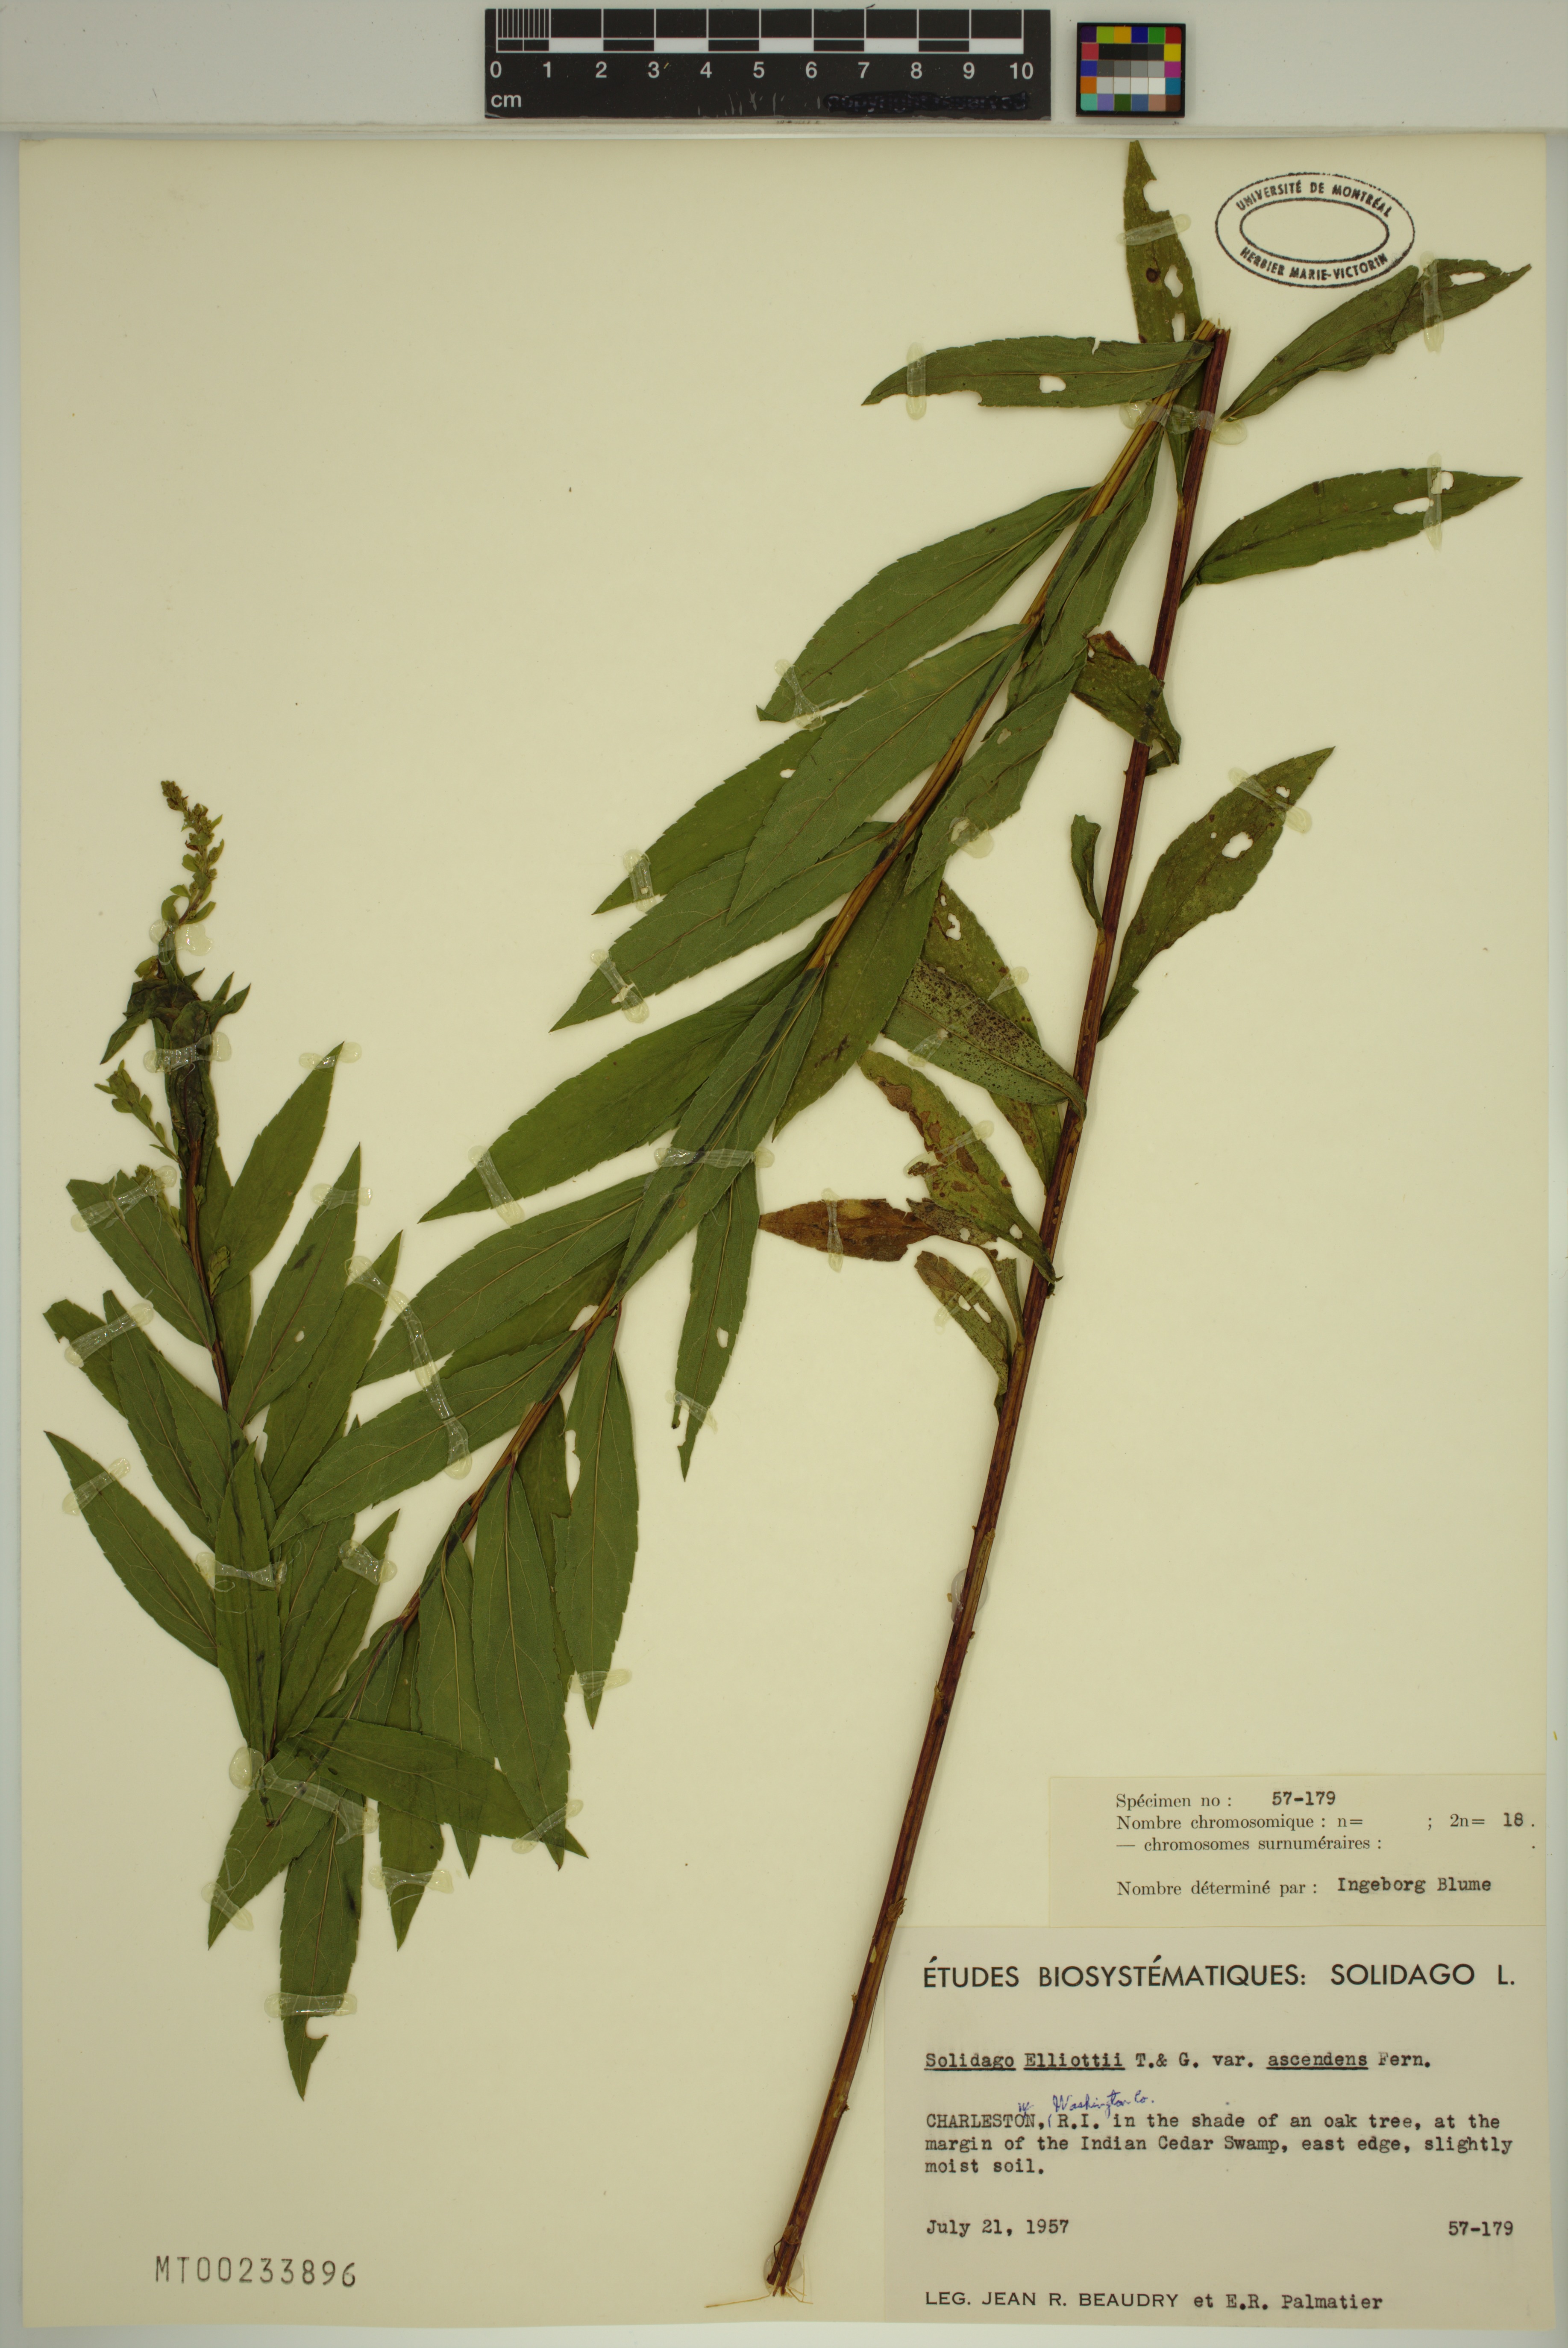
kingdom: Plantae
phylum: Tracheophyta
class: Magnoliopsida
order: Asterales
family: Asteraceae
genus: Solidago
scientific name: Solidago latissimifolia
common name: Elliott's goldenrod
